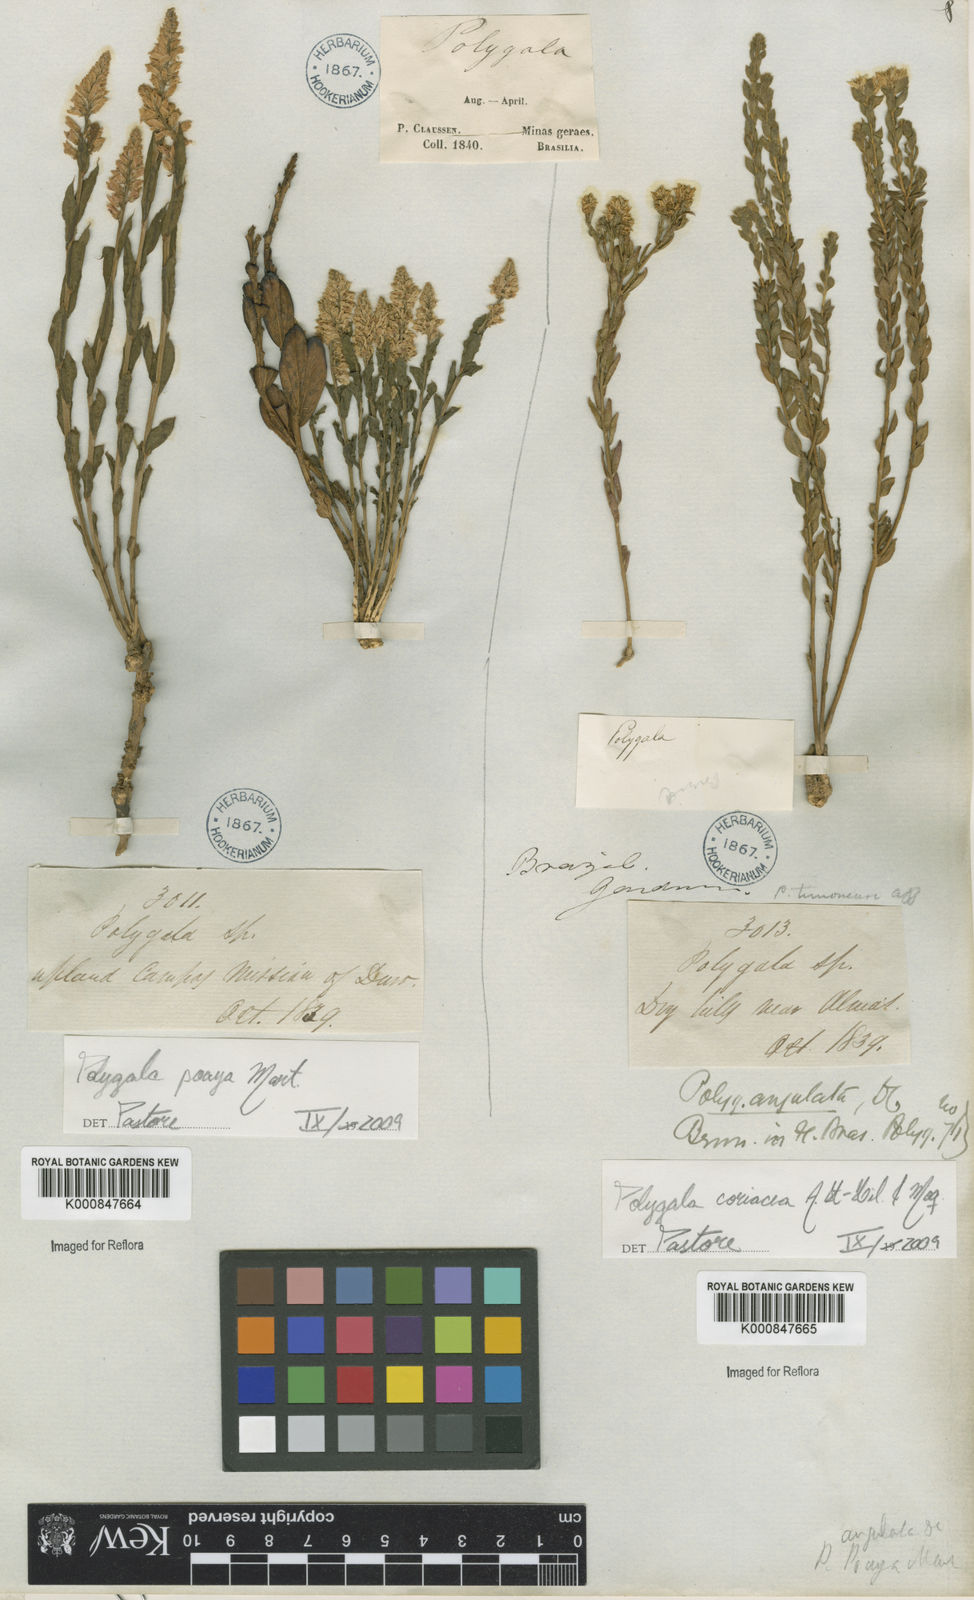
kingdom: Plantae
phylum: Tracheophyta
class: Magnoliopsida
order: Fabales
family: Polygalaceae
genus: Polygala
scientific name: Polygala coriacea
